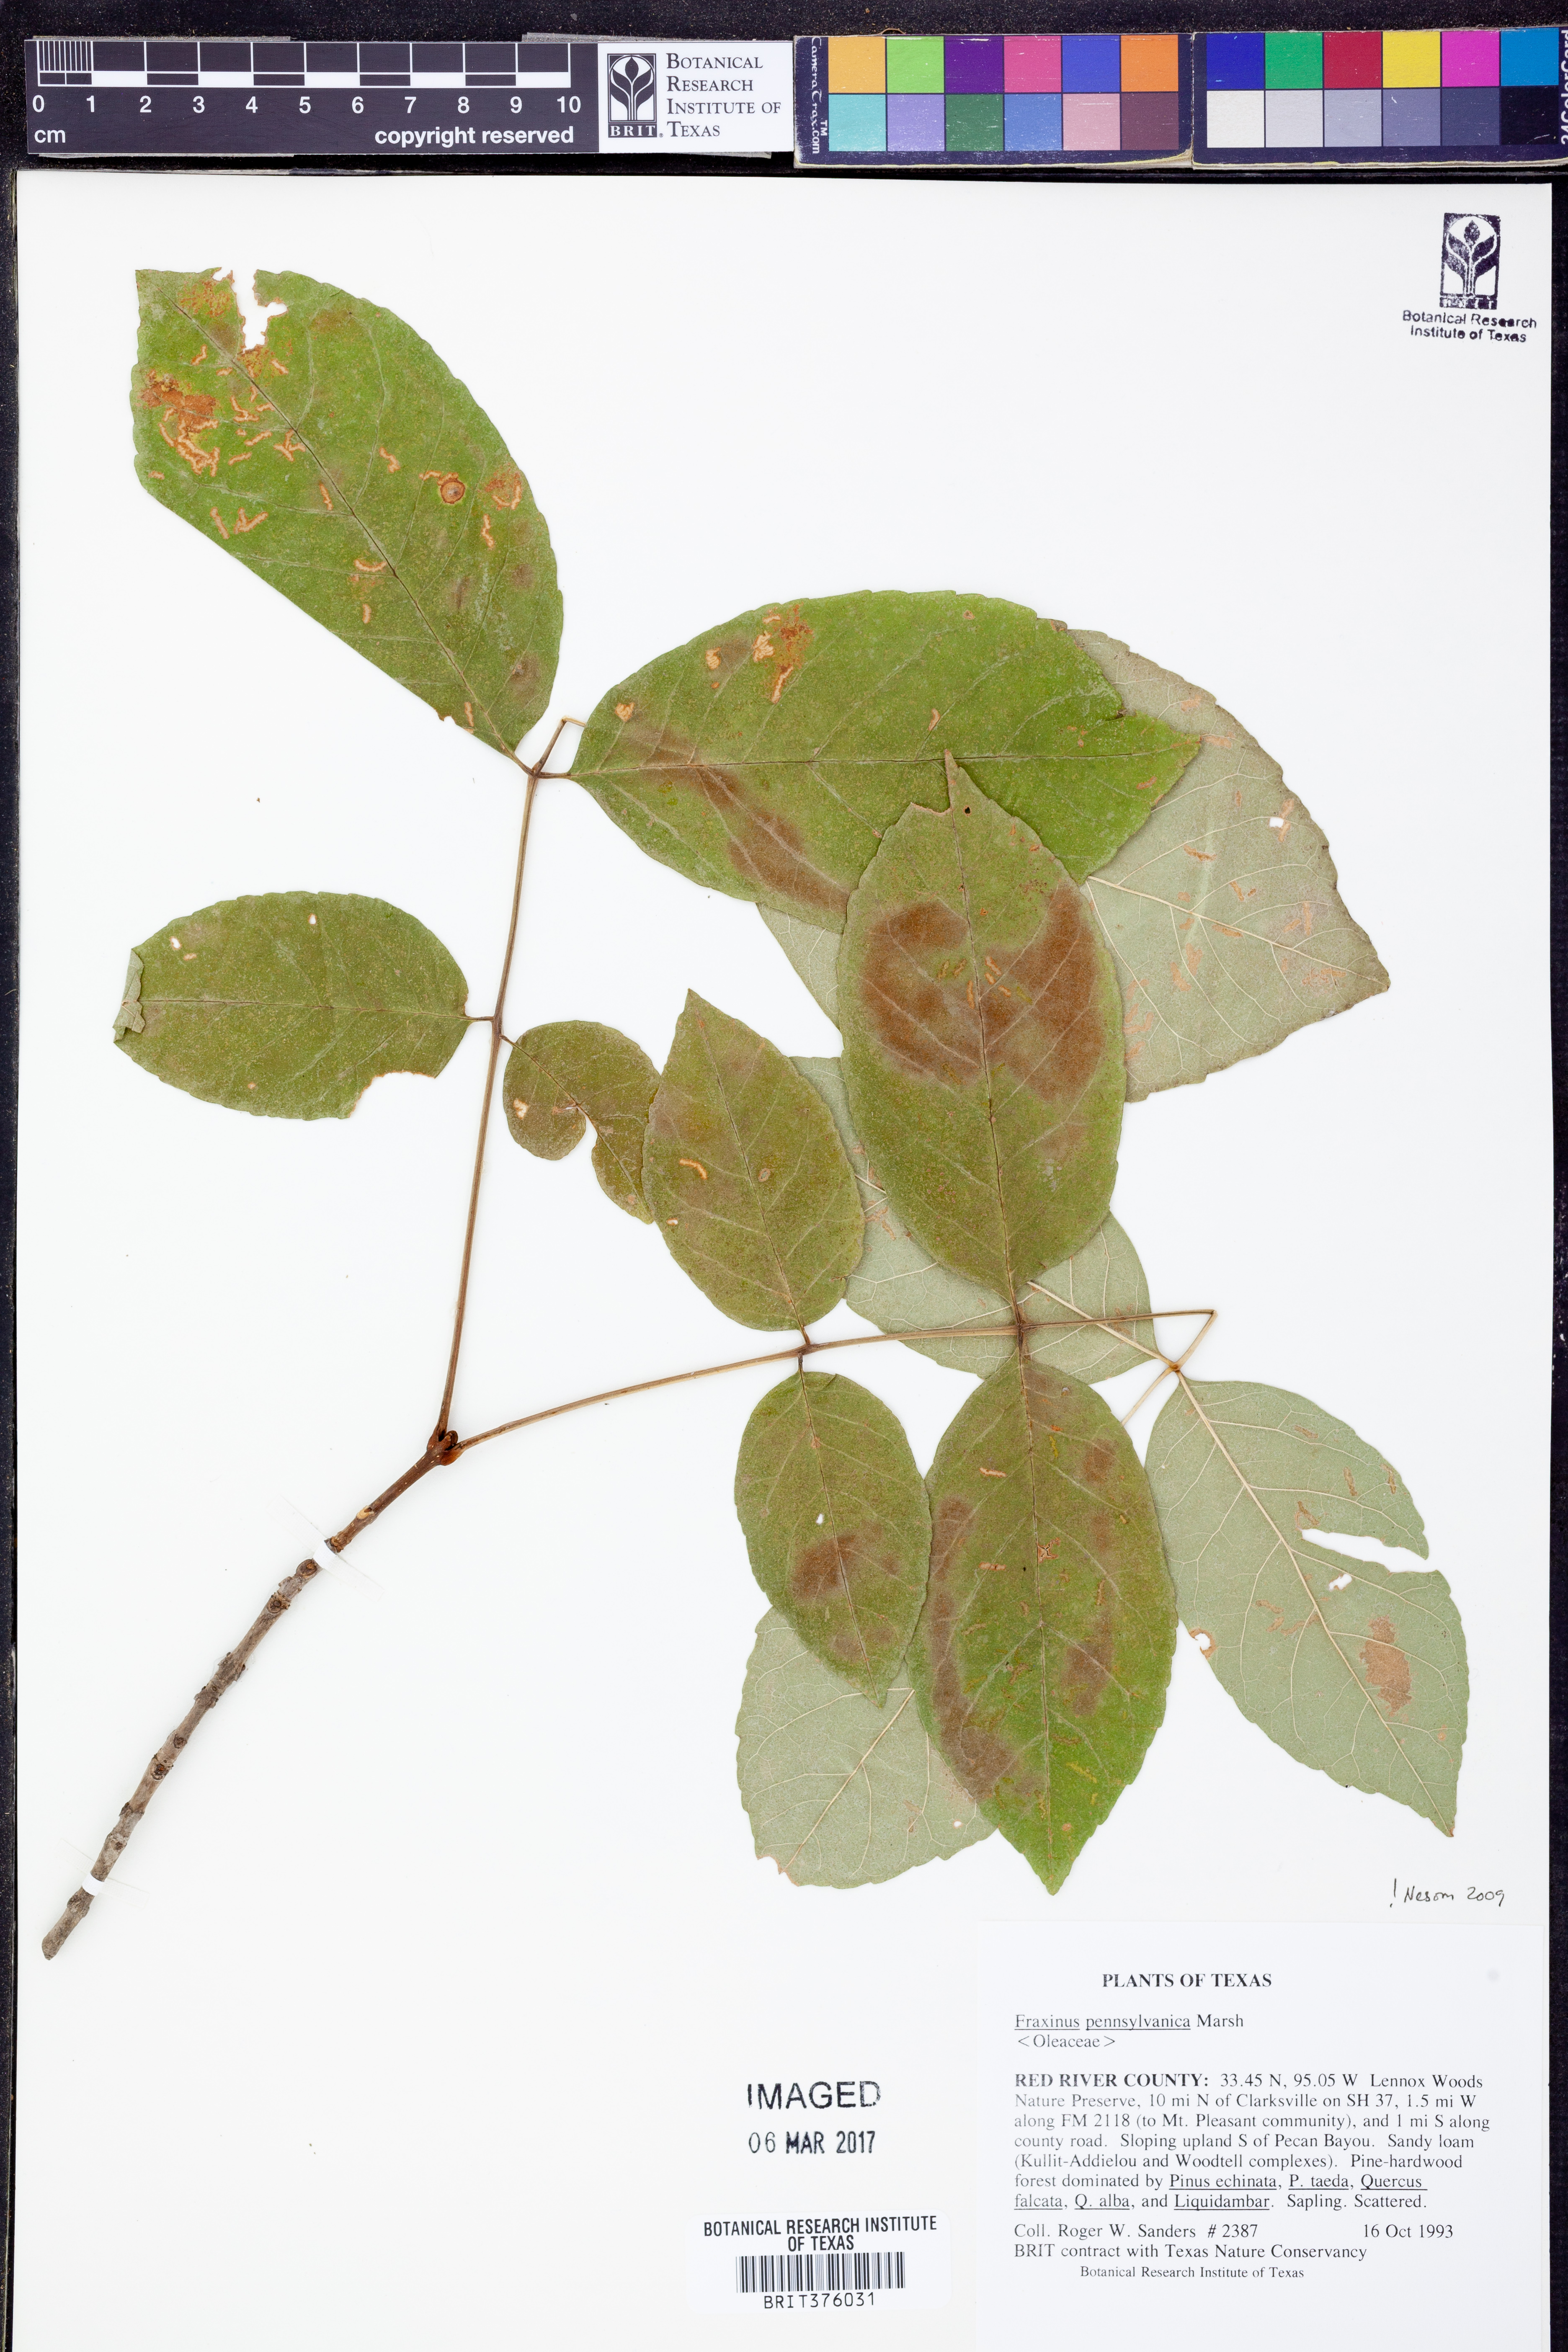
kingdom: Plantae
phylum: Tracheophyta
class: Magnoliopsida
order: Lamiales
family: Oleaceae
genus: Fraxinus
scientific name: Fraxinus pennsylvanica
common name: Green ash
